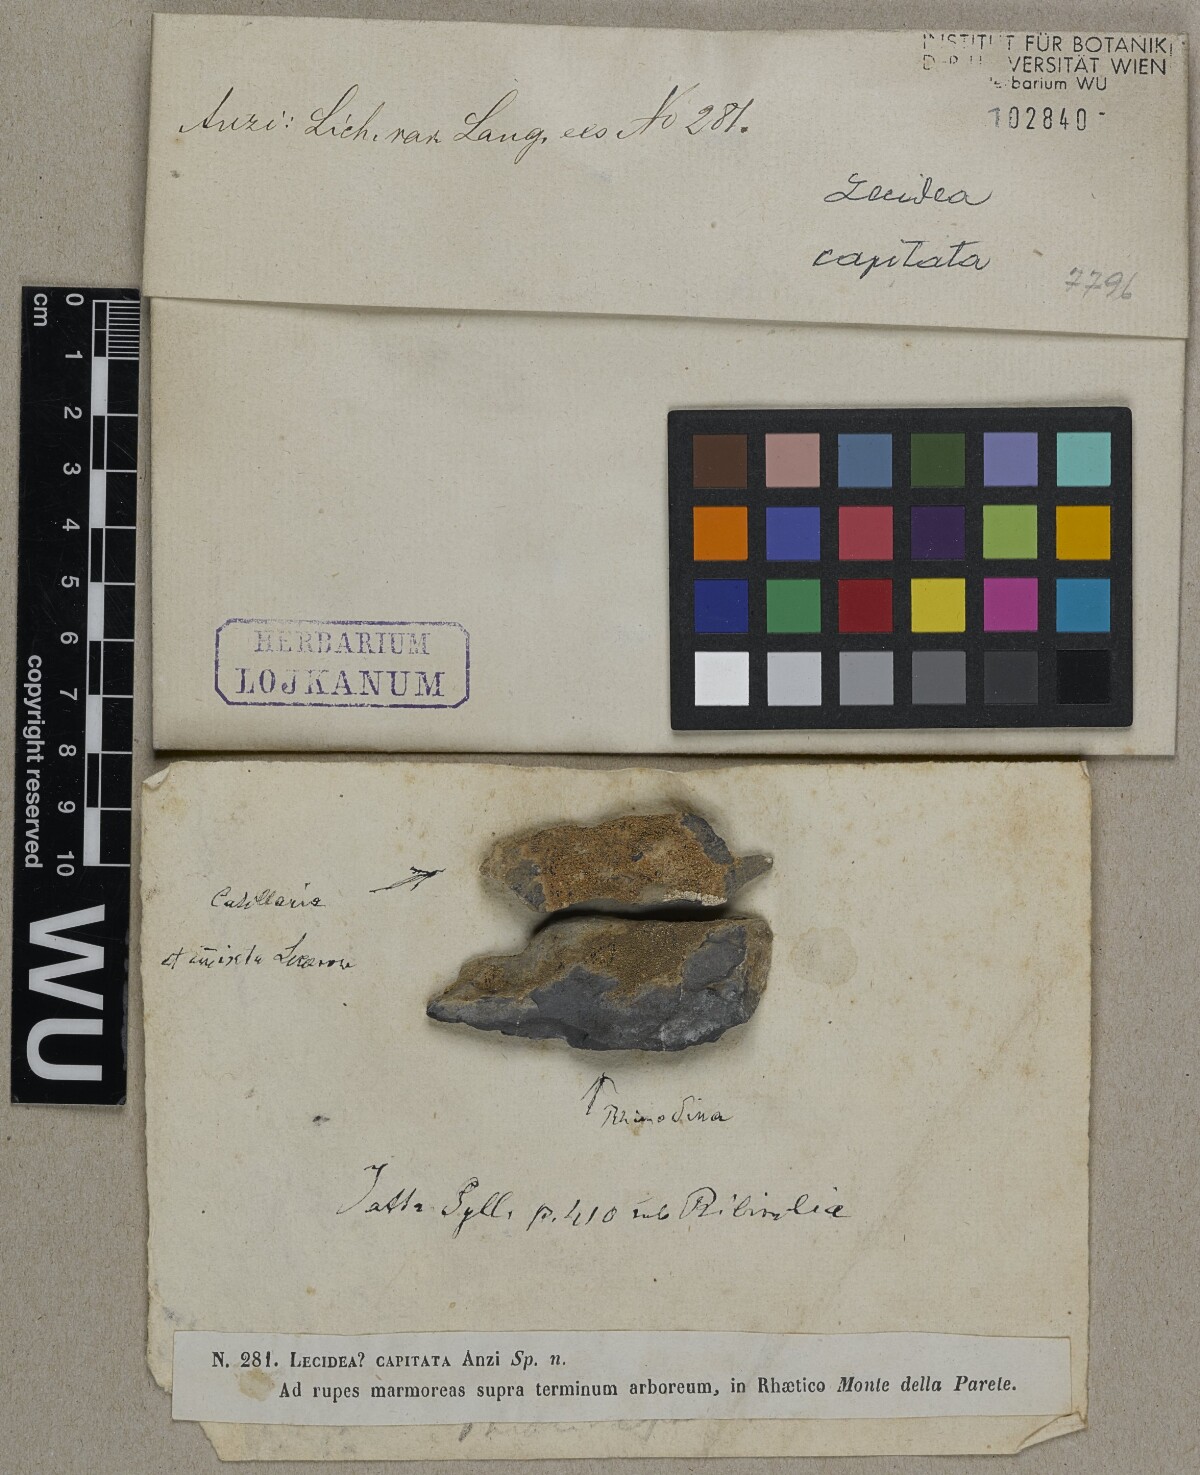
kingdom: Fungi
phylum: Ascomycota
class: Lecanoromycetes
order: Lecanorales
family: Ramalinaceae
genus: Kiliasia
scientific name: Kiliasia philippea
